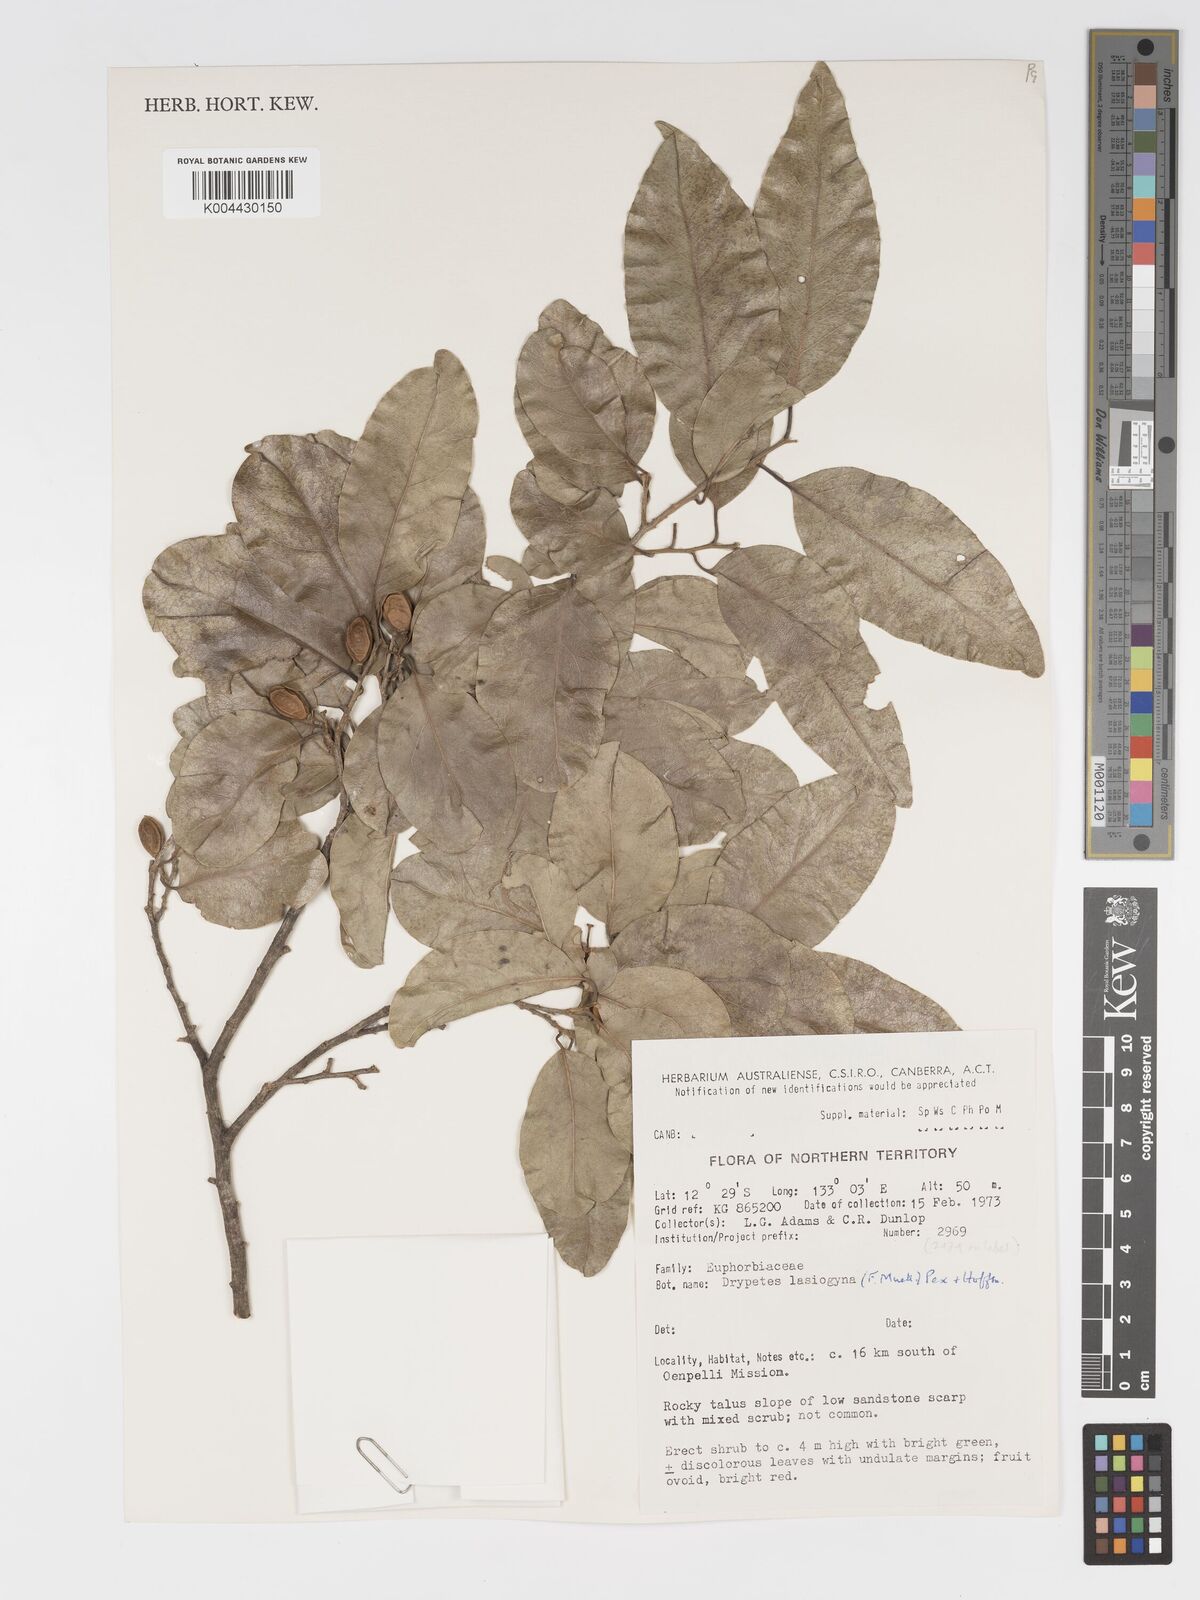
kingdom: Plantae
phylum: Tracheophyta
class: Magnoliopsida
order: Malpighiales
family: Putranjivaceae
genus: Drypetes
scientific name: Drypetes deplanchei
